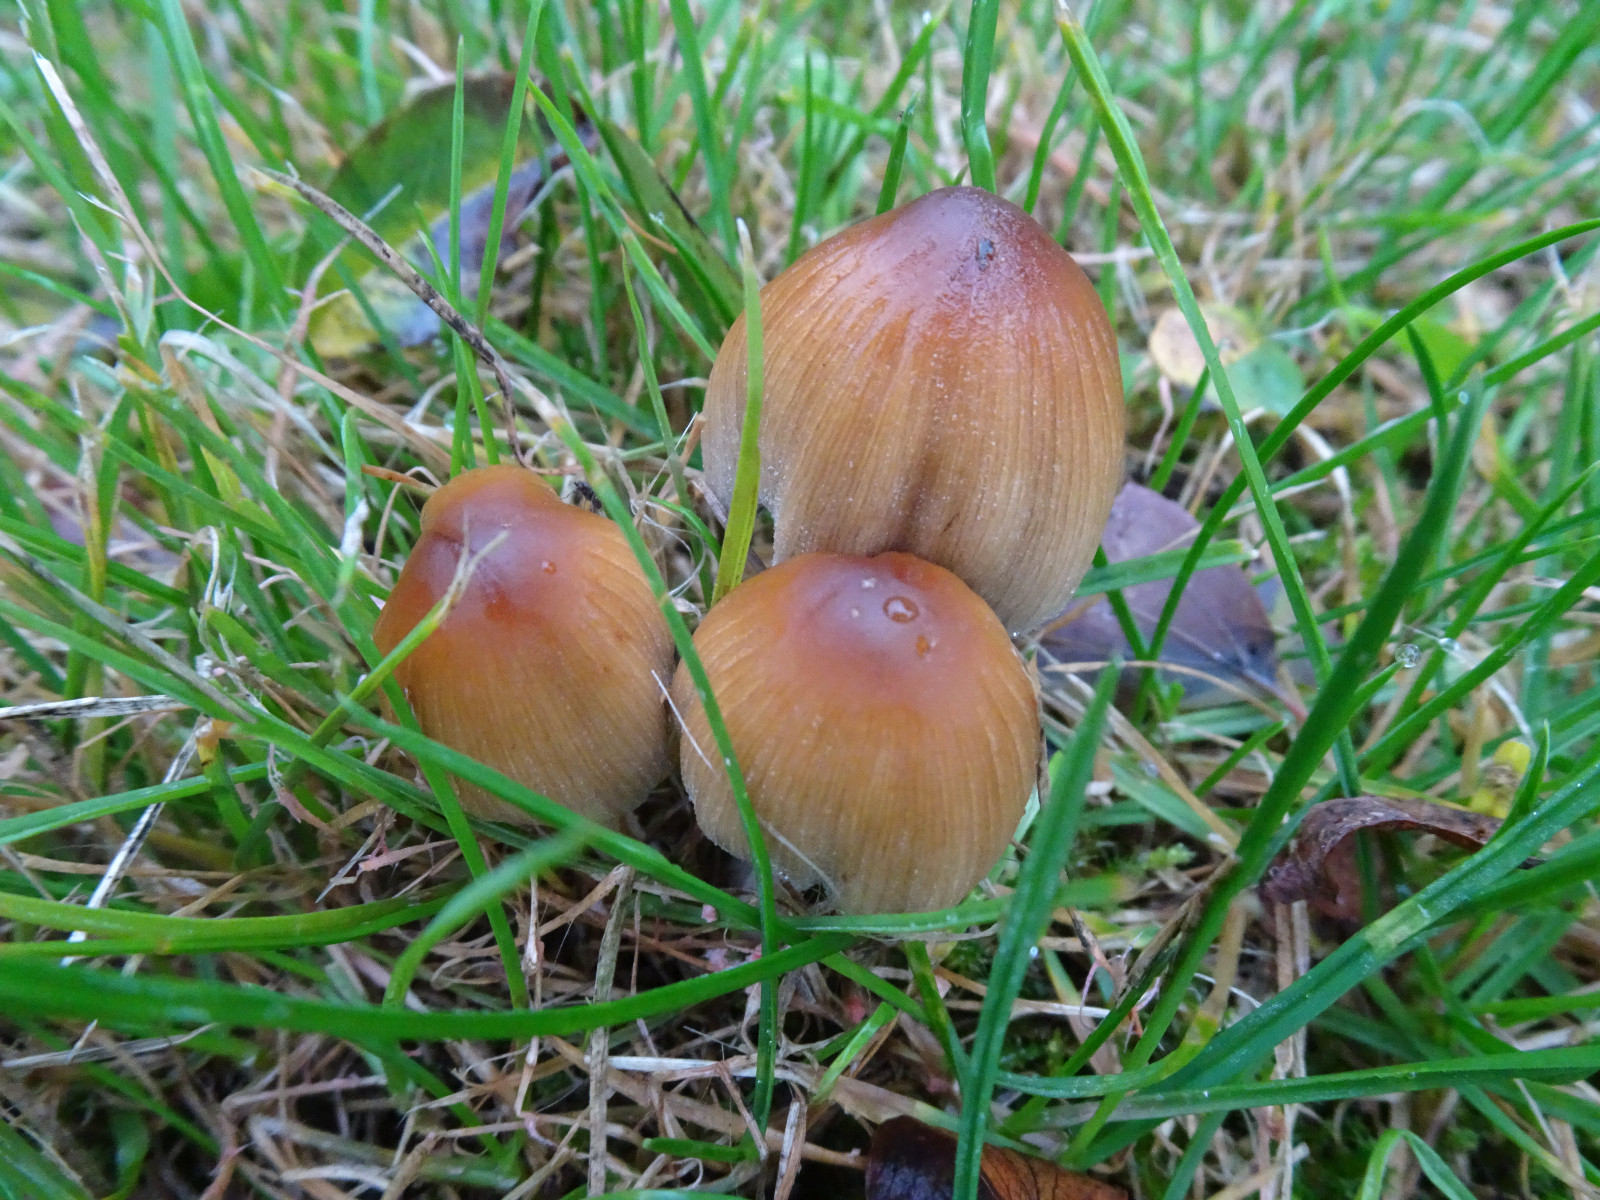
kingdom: Fungi
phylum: Basidiomycota
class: Agaricomycetes
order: Agaricales
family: Psathyrellaceae
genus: Coprinellus
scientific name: Coprinellus micaceus
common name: glimmer-blækhat
